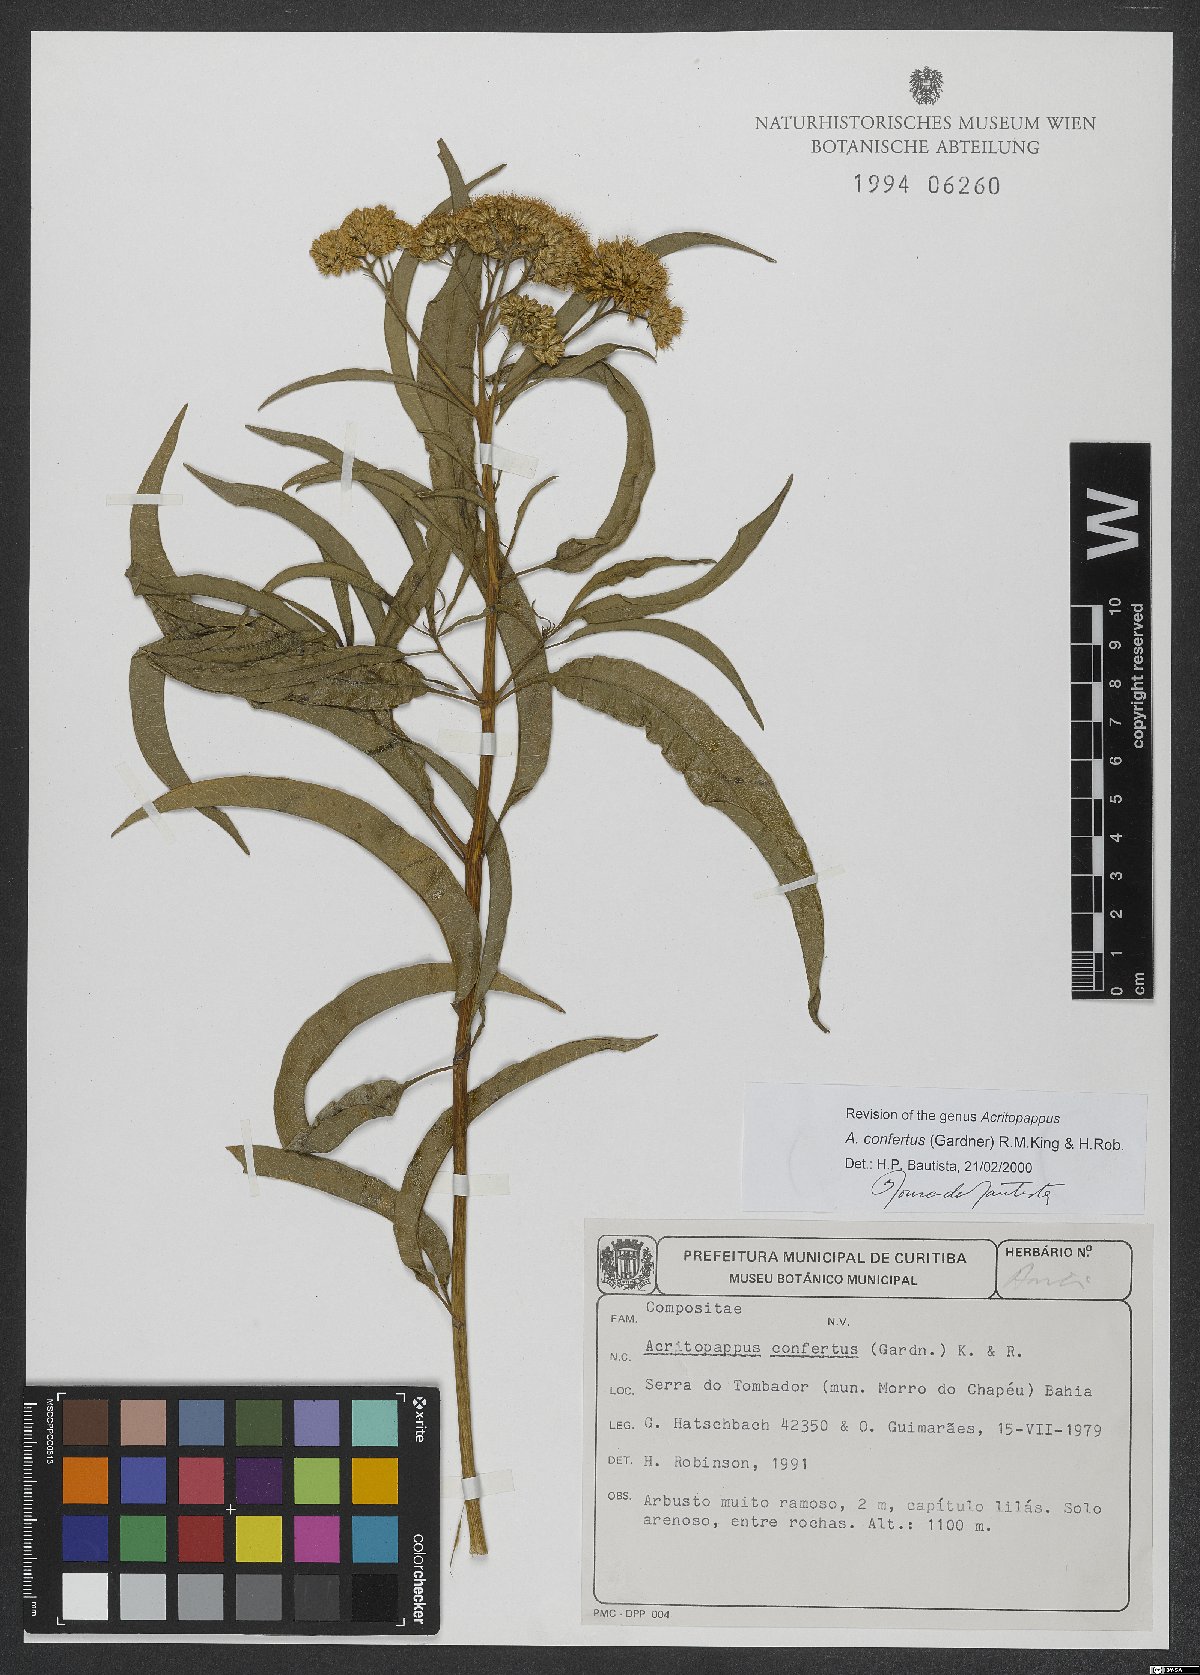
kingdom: Plantae
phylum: Tracheophyta
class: Magnoliopsida
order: Asterales
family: Asteraceae
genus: Acritopappus
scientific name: Acritopappus confertus
